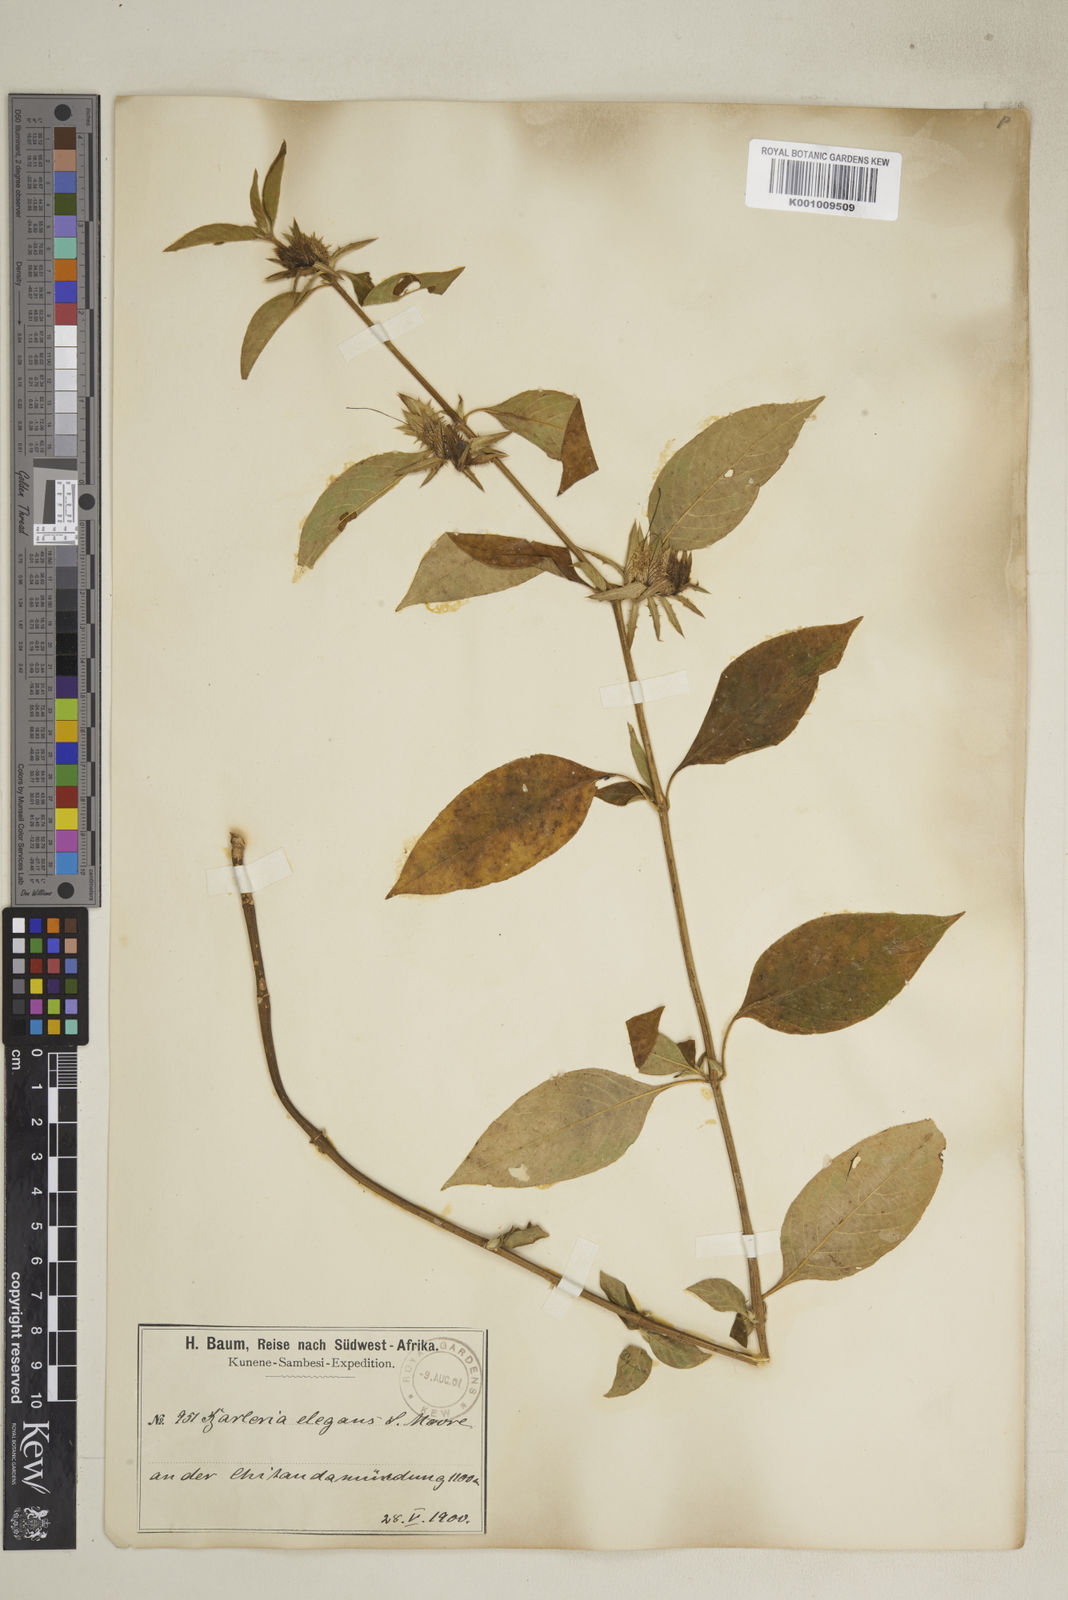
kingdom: Plantae
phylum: Tracheophyta
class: Magnoliopsida
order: Lamiales
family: Acanthaceae
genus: Barleria
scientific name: Barleria
